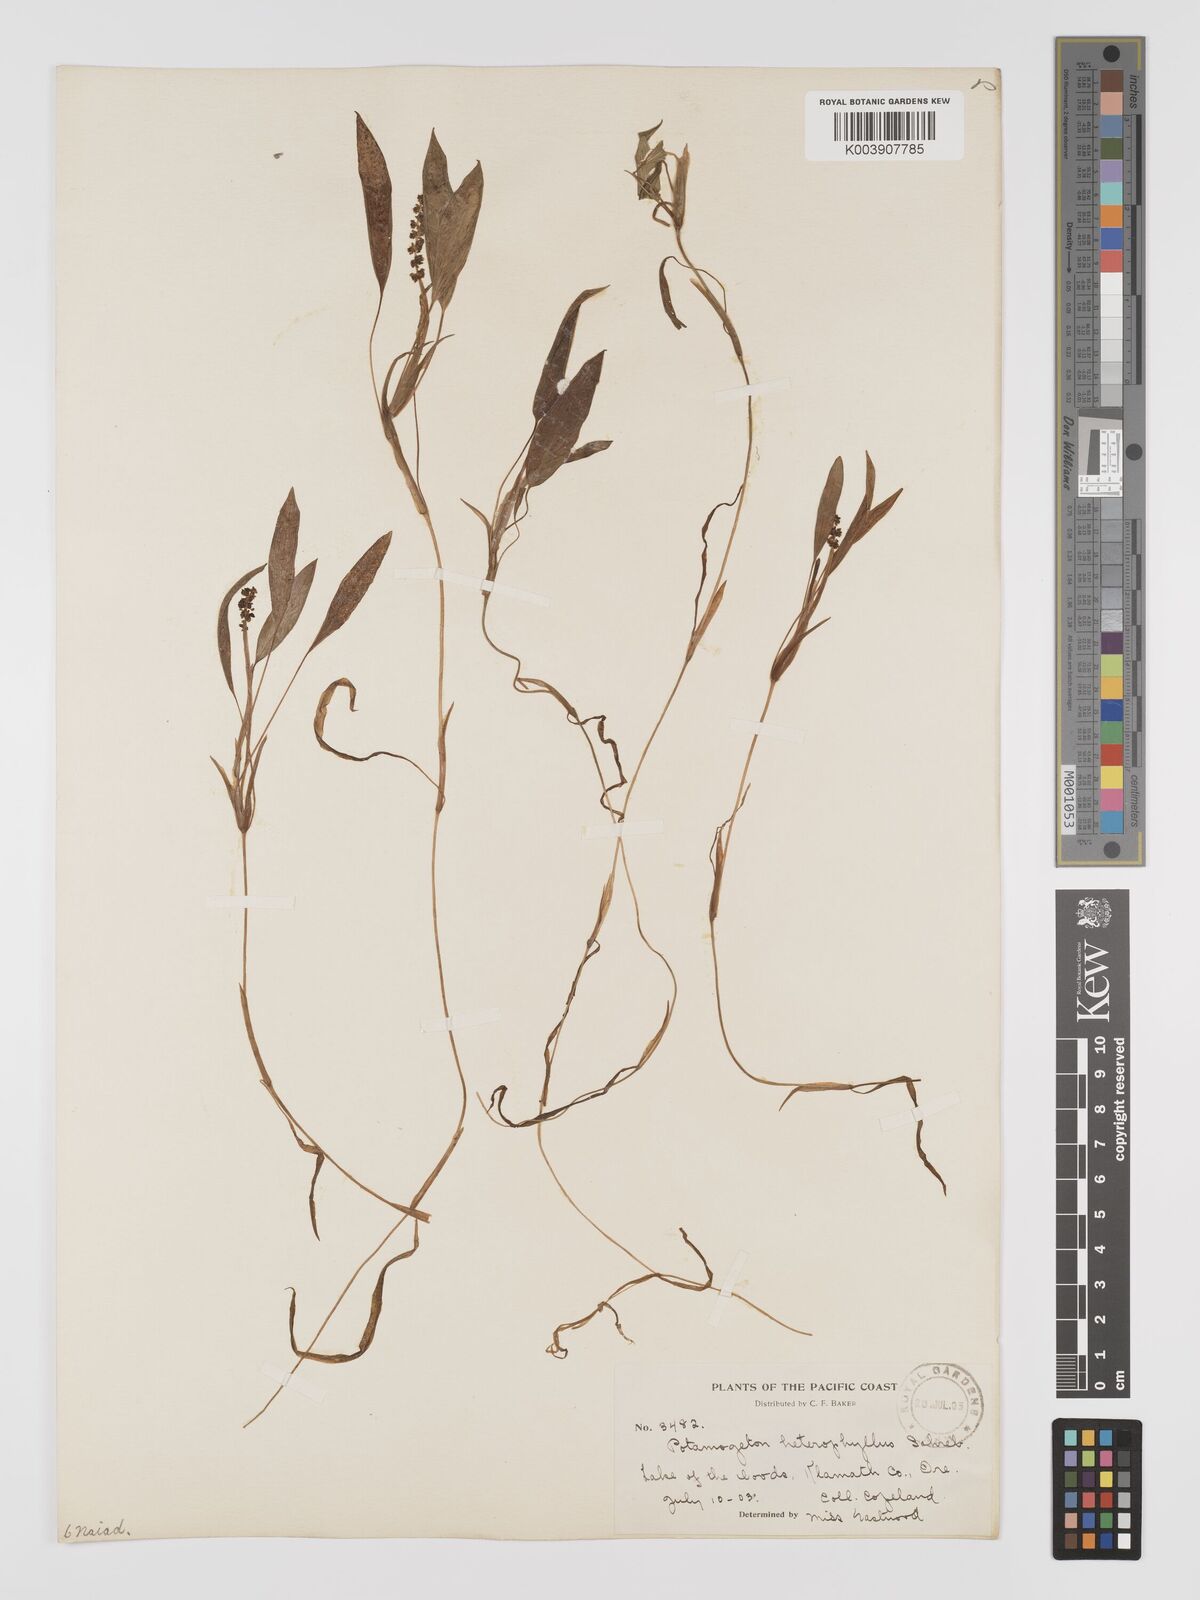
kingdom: Plantae
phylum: Tracheophyta
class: Liliopsida
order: Alismatales
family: Potamogetonaceae
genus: Potamogeton
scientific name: Potamogeton gramineus
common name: Various-leaved pondweed
